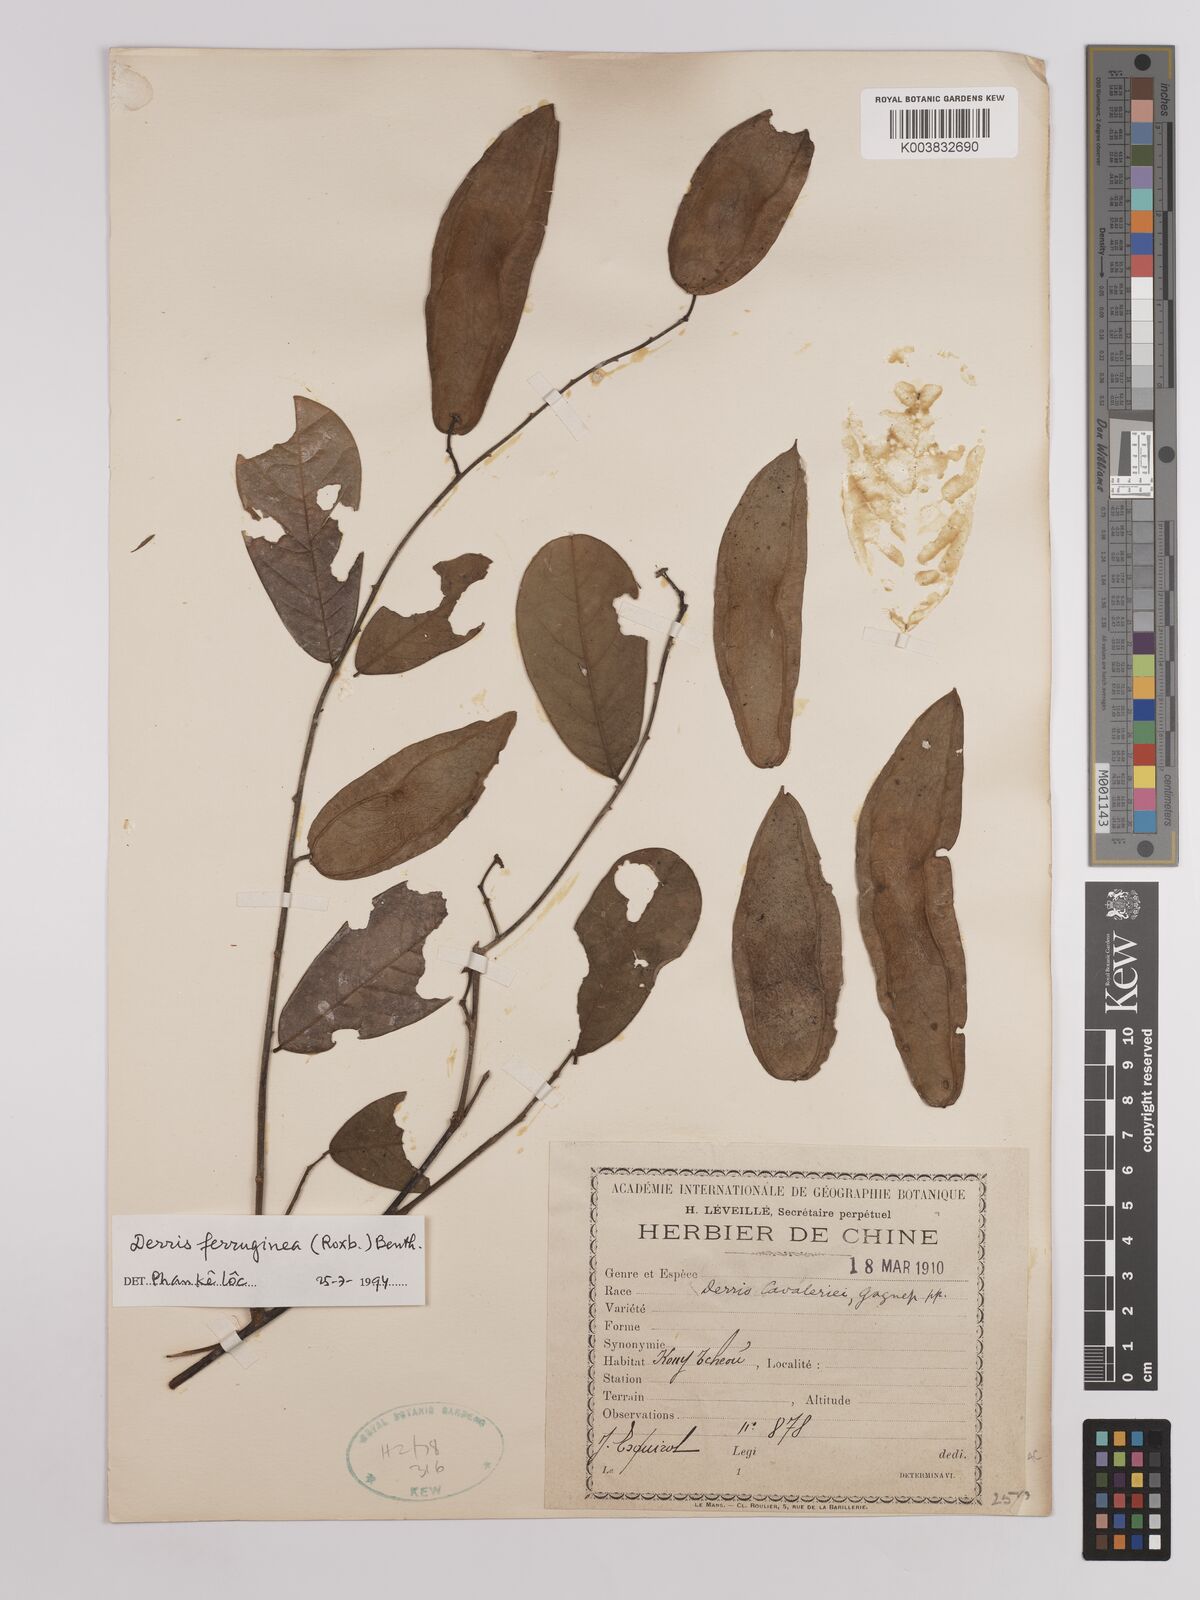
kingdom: Plantae
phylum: Tracheophyta
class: Magnoliopsida
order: Fabales
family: Fabaceae
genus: Derris
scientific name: Derris cavaleriei
